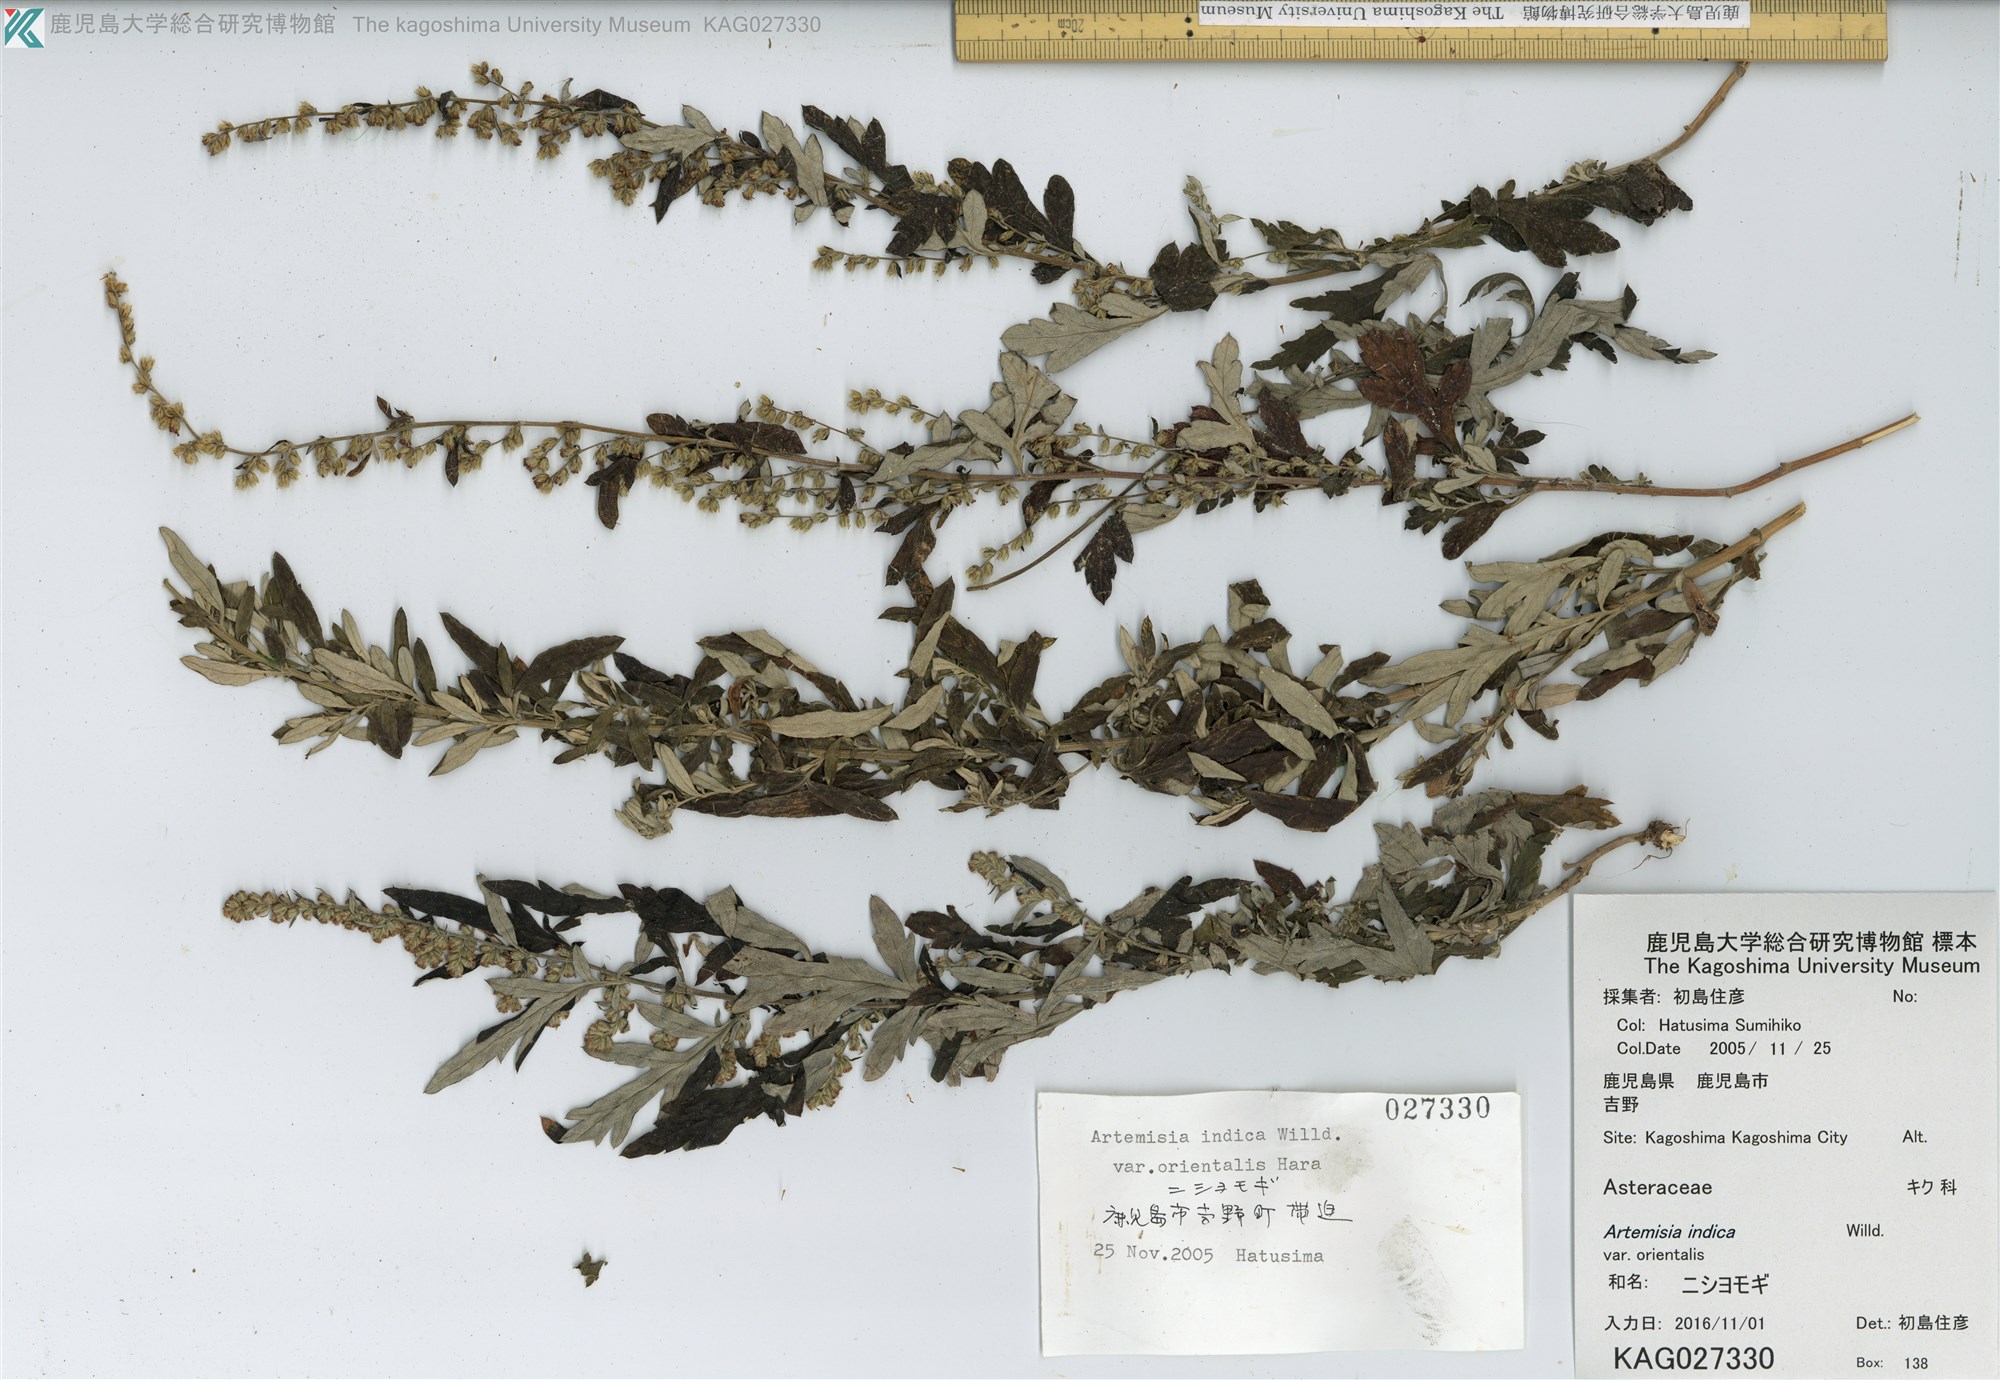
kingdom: Plantae
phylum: Tracheophyta
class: Magnoliopsida
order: Asterales
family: Asteraceae
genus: Artemisia
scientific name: Artemisia indica
